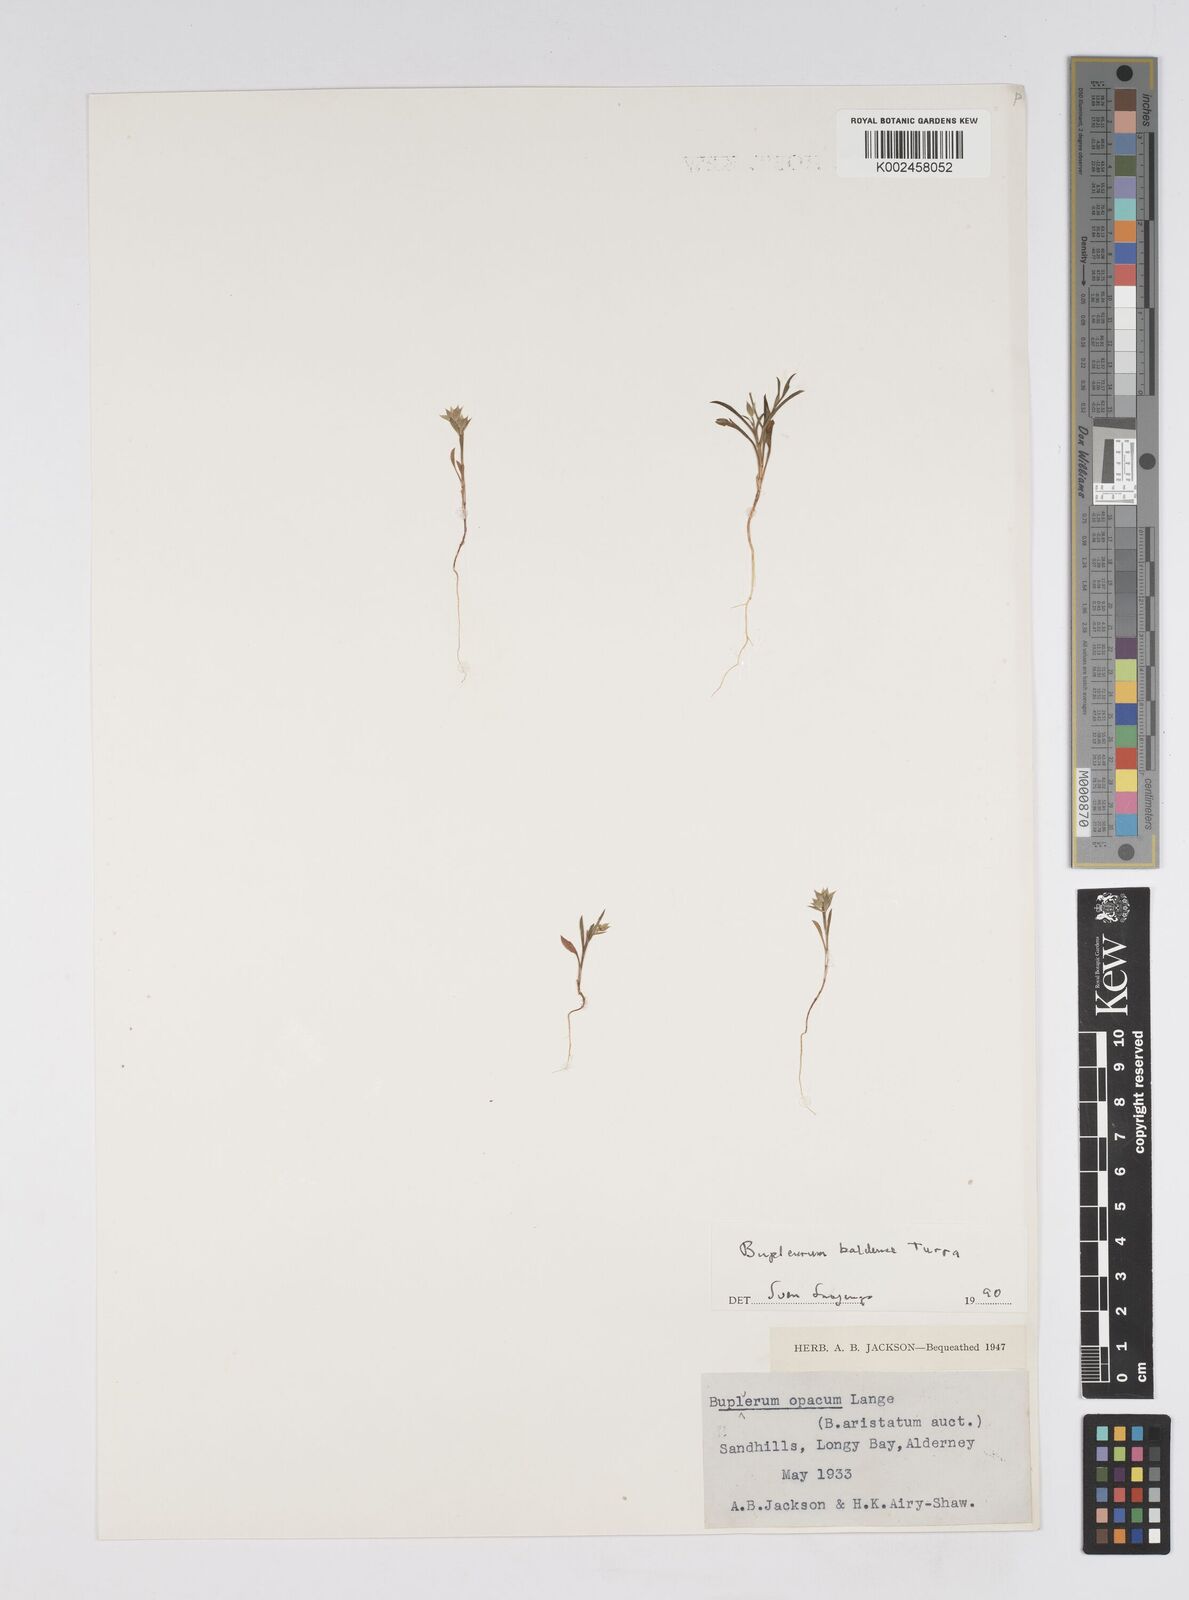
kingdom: Plantae
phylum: Tracheophyta
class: Magnoliopsida
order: Apiales
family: Apiaceae
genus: Bupleurum
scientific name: Bupleurum baldense
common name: Small hare's-ear
